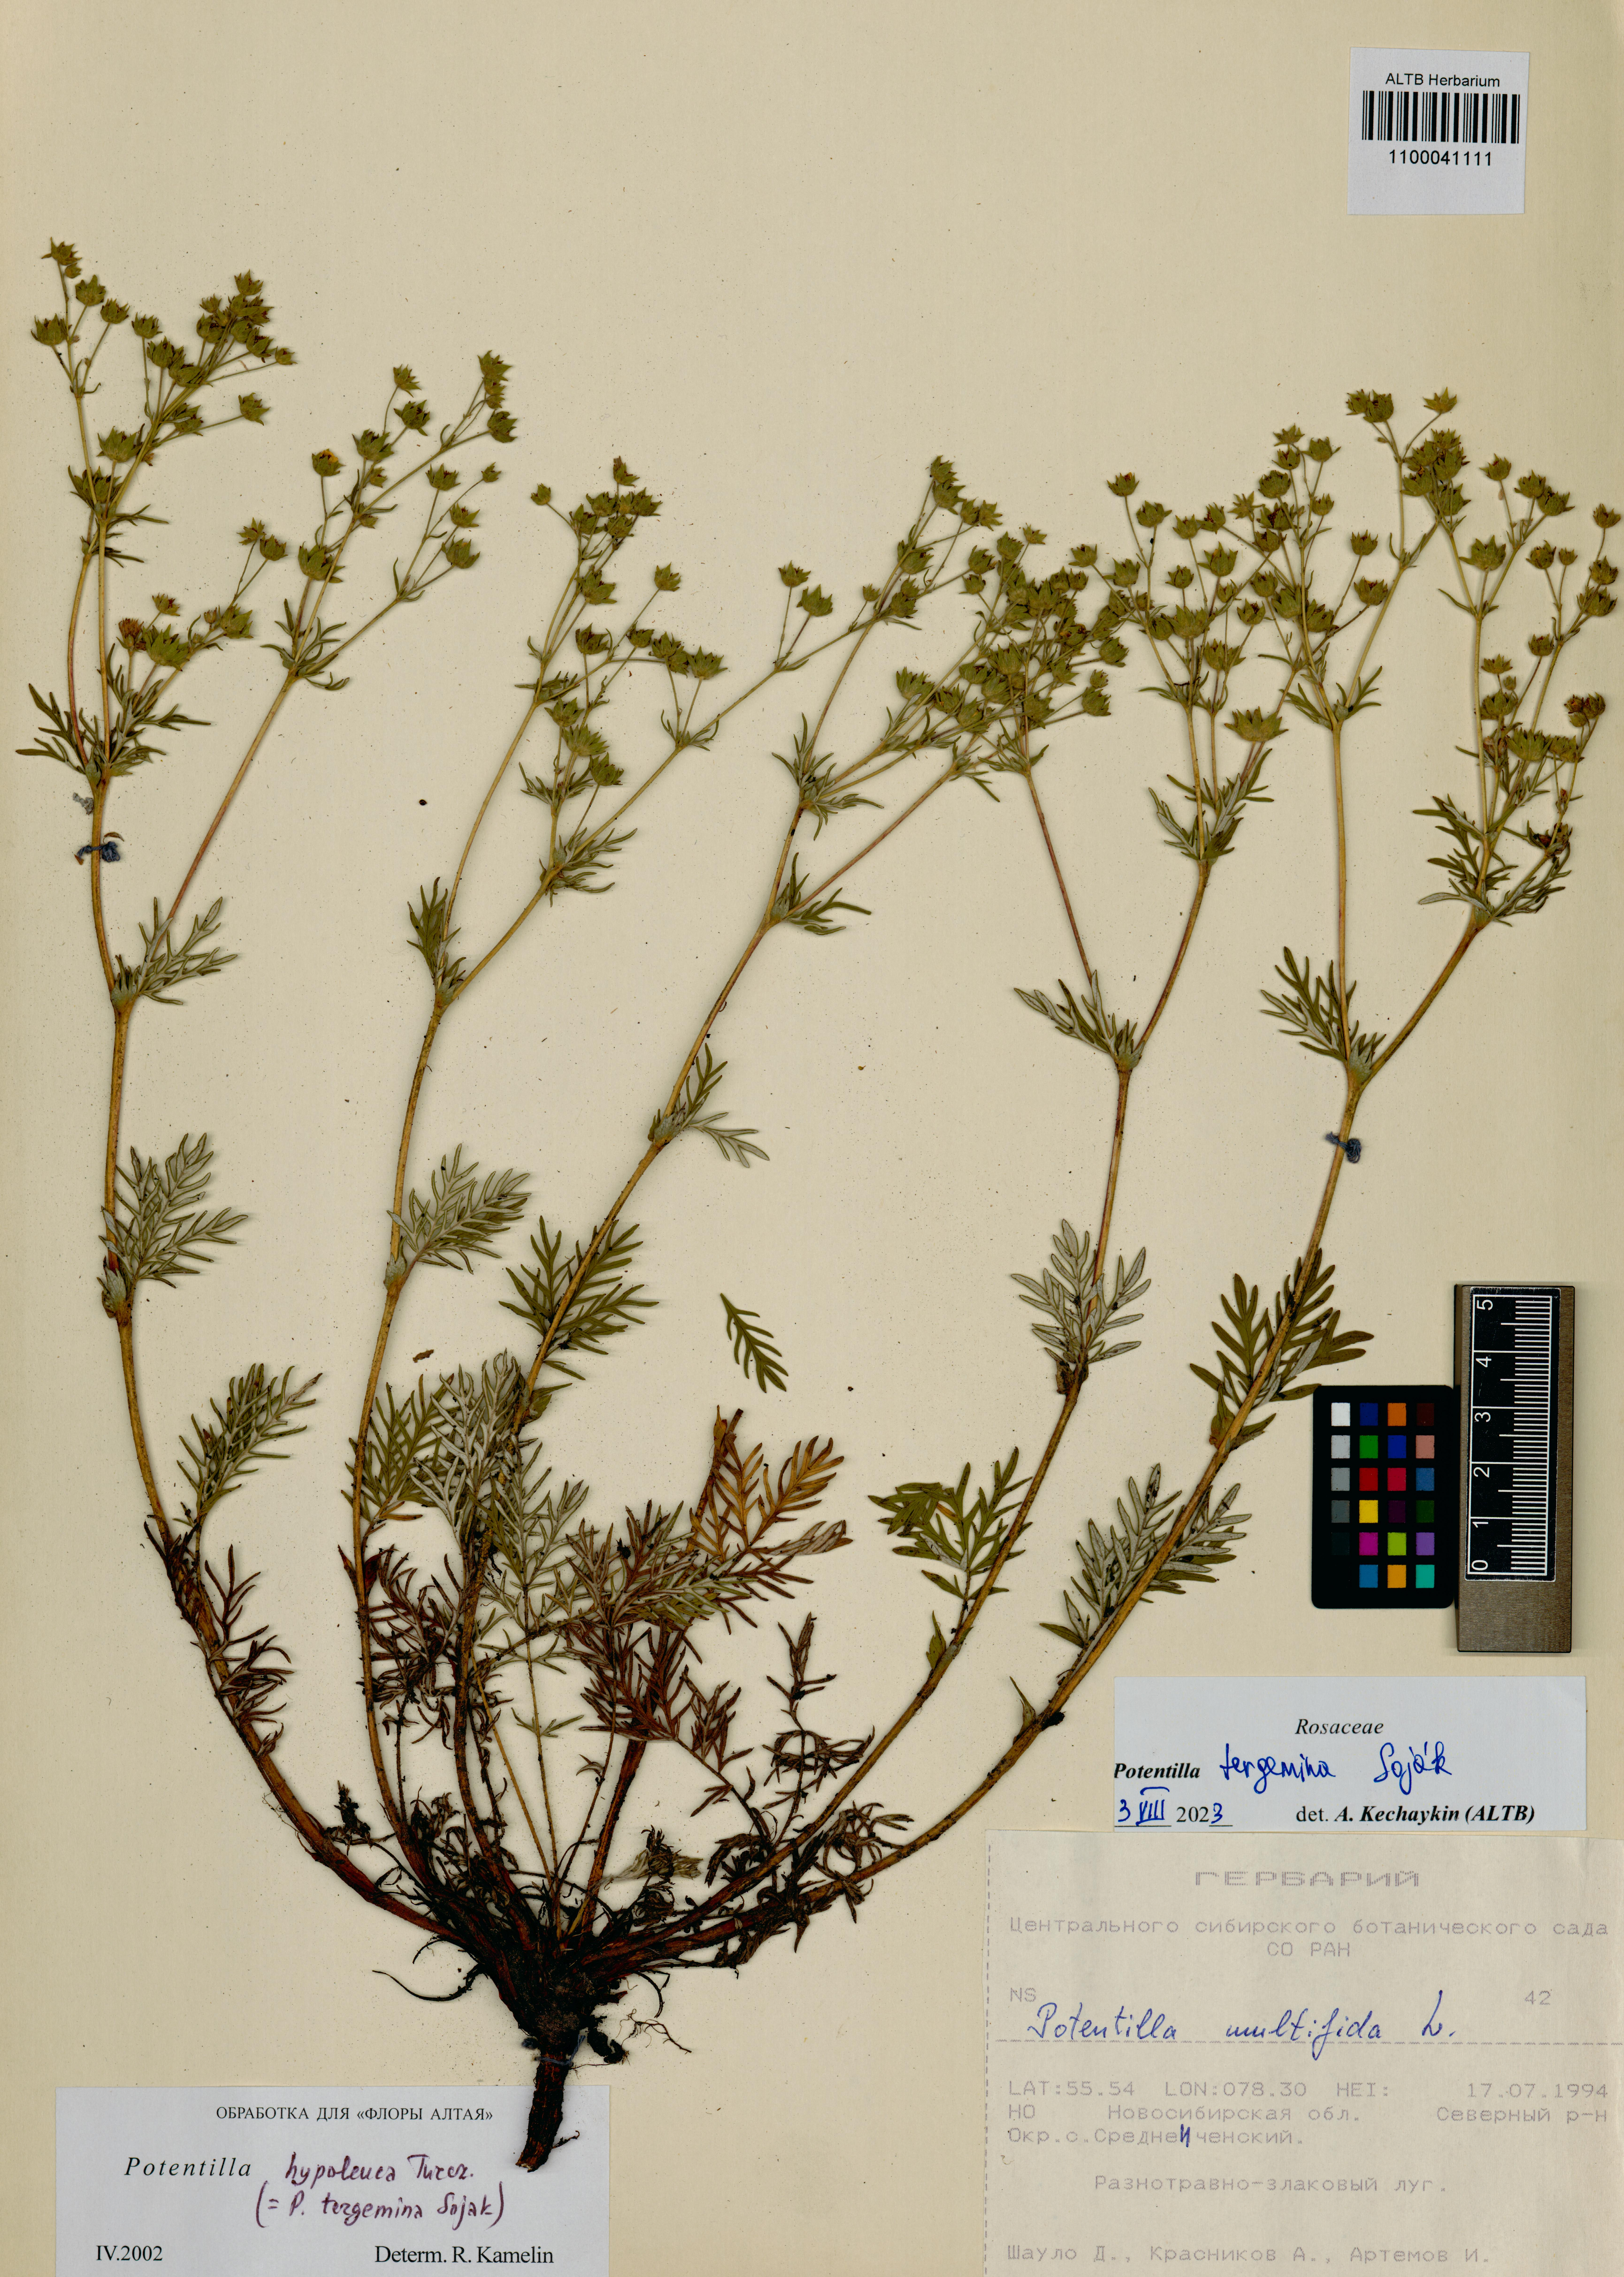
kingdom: Plantae
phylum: Tracheophyta
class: Magnoliopsida
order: Rosales
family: Rosaceae
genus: Potentilla
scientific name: Potentilla tergemina
